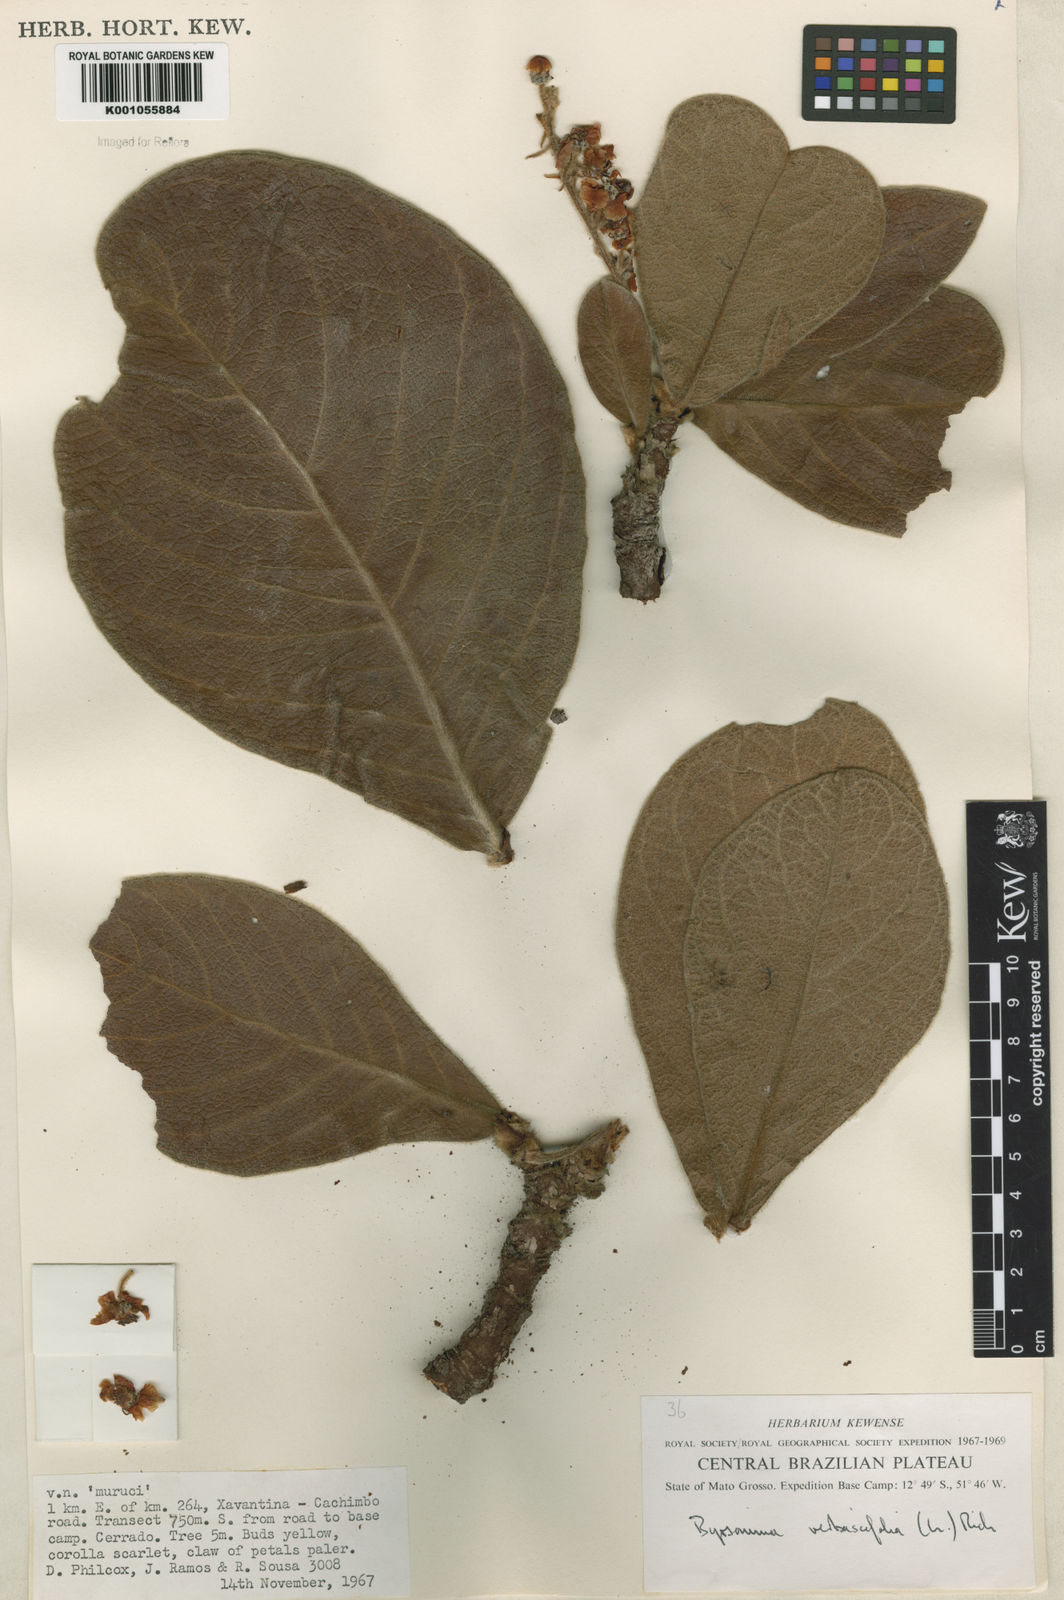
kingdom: Plantae
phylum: Tracheophyta
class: Magnoliopsida
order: Malpighiales
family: Malpighiaceae
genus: Byrsonima
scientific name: Byrsonima verbascifolia
